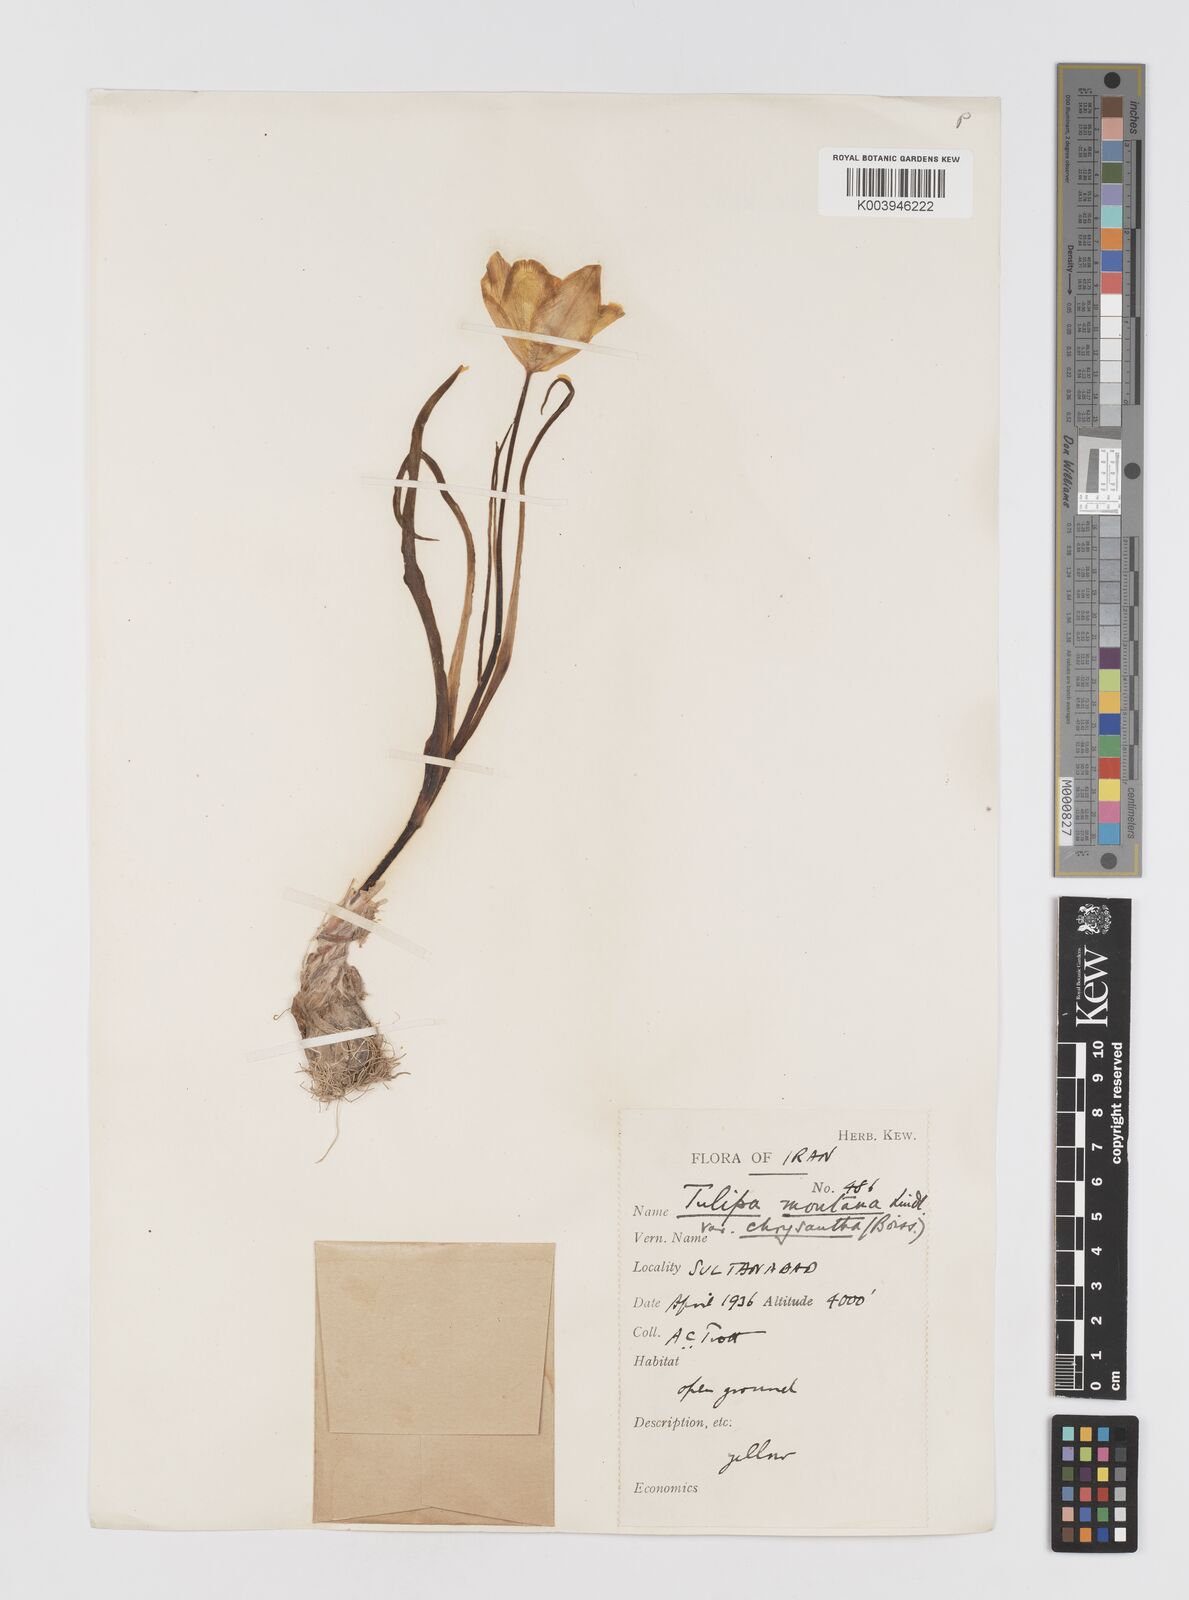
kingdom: Plantae
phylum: Tracheophyta
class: Liliopsida
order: Liliales
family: Liliaceae
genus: Tulipa
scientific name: Tulipa montana
